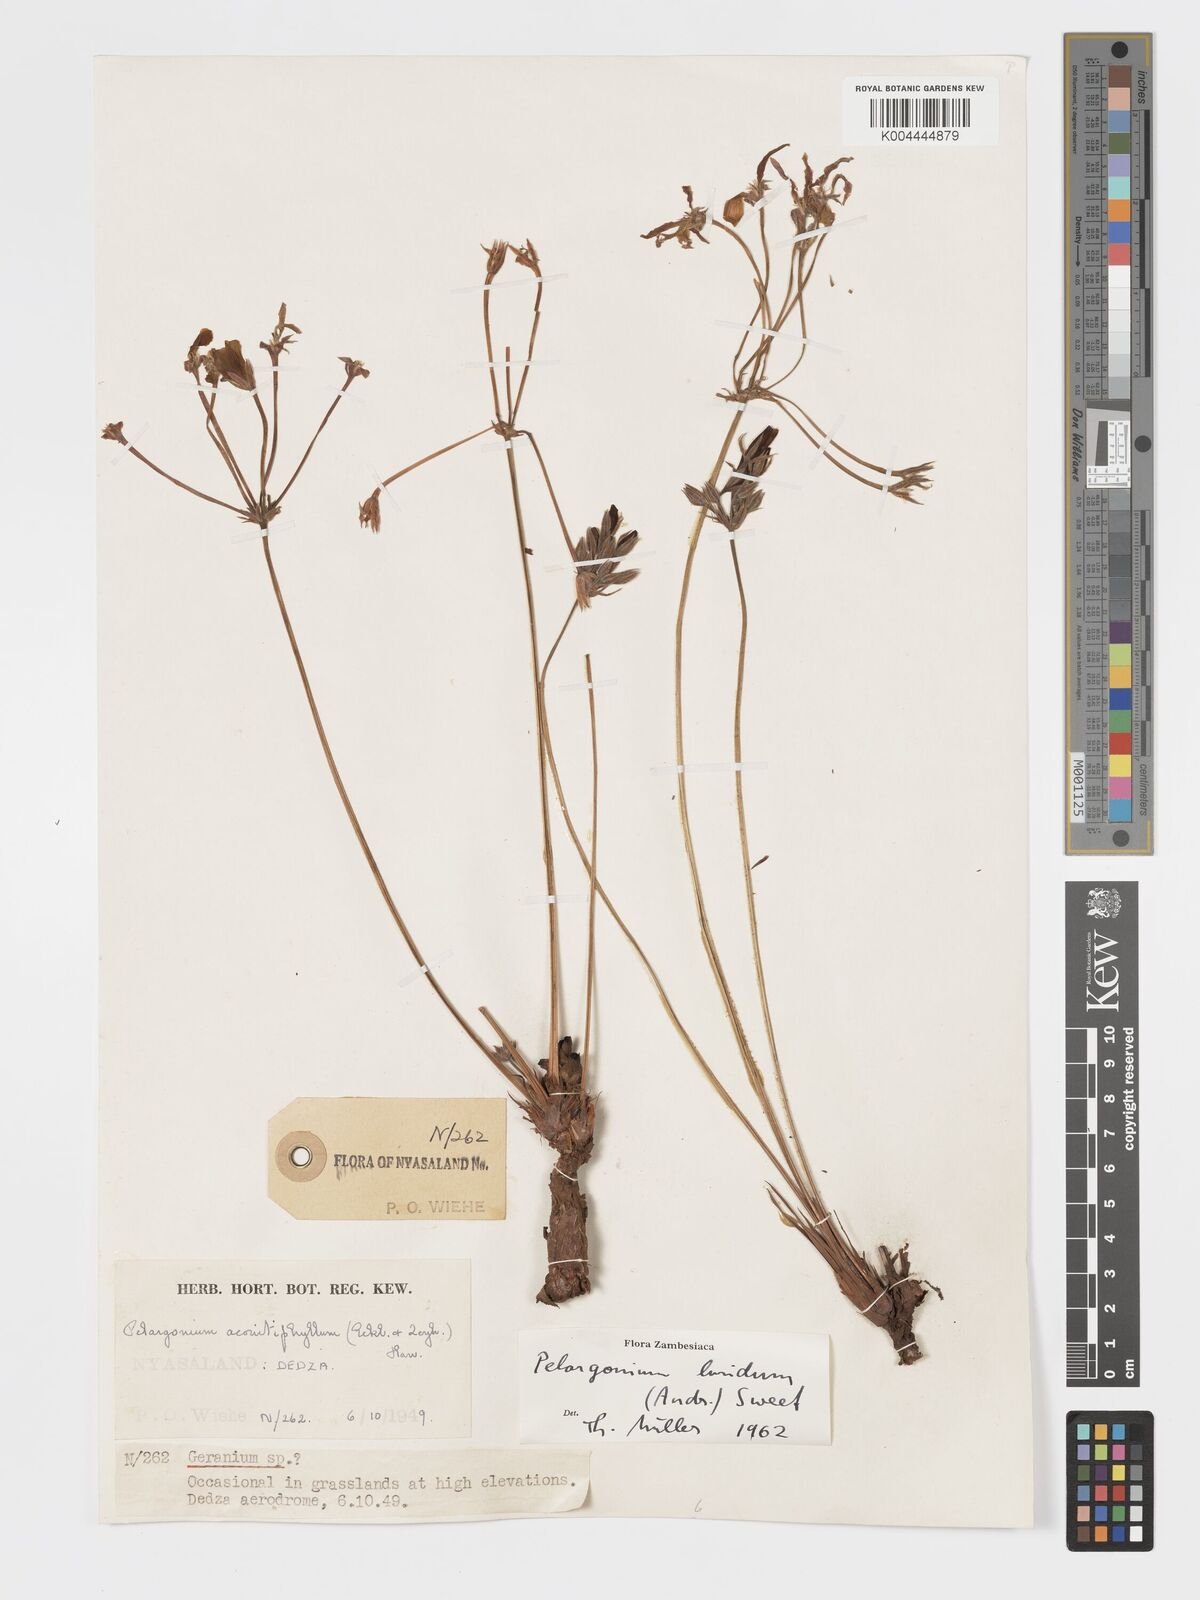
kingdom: Plantae
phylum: Tracheophyta
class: Magnoliopsida
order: Geraniales
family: Geraniaceae
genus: Pelargonium
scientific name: Pelargonium luridum
